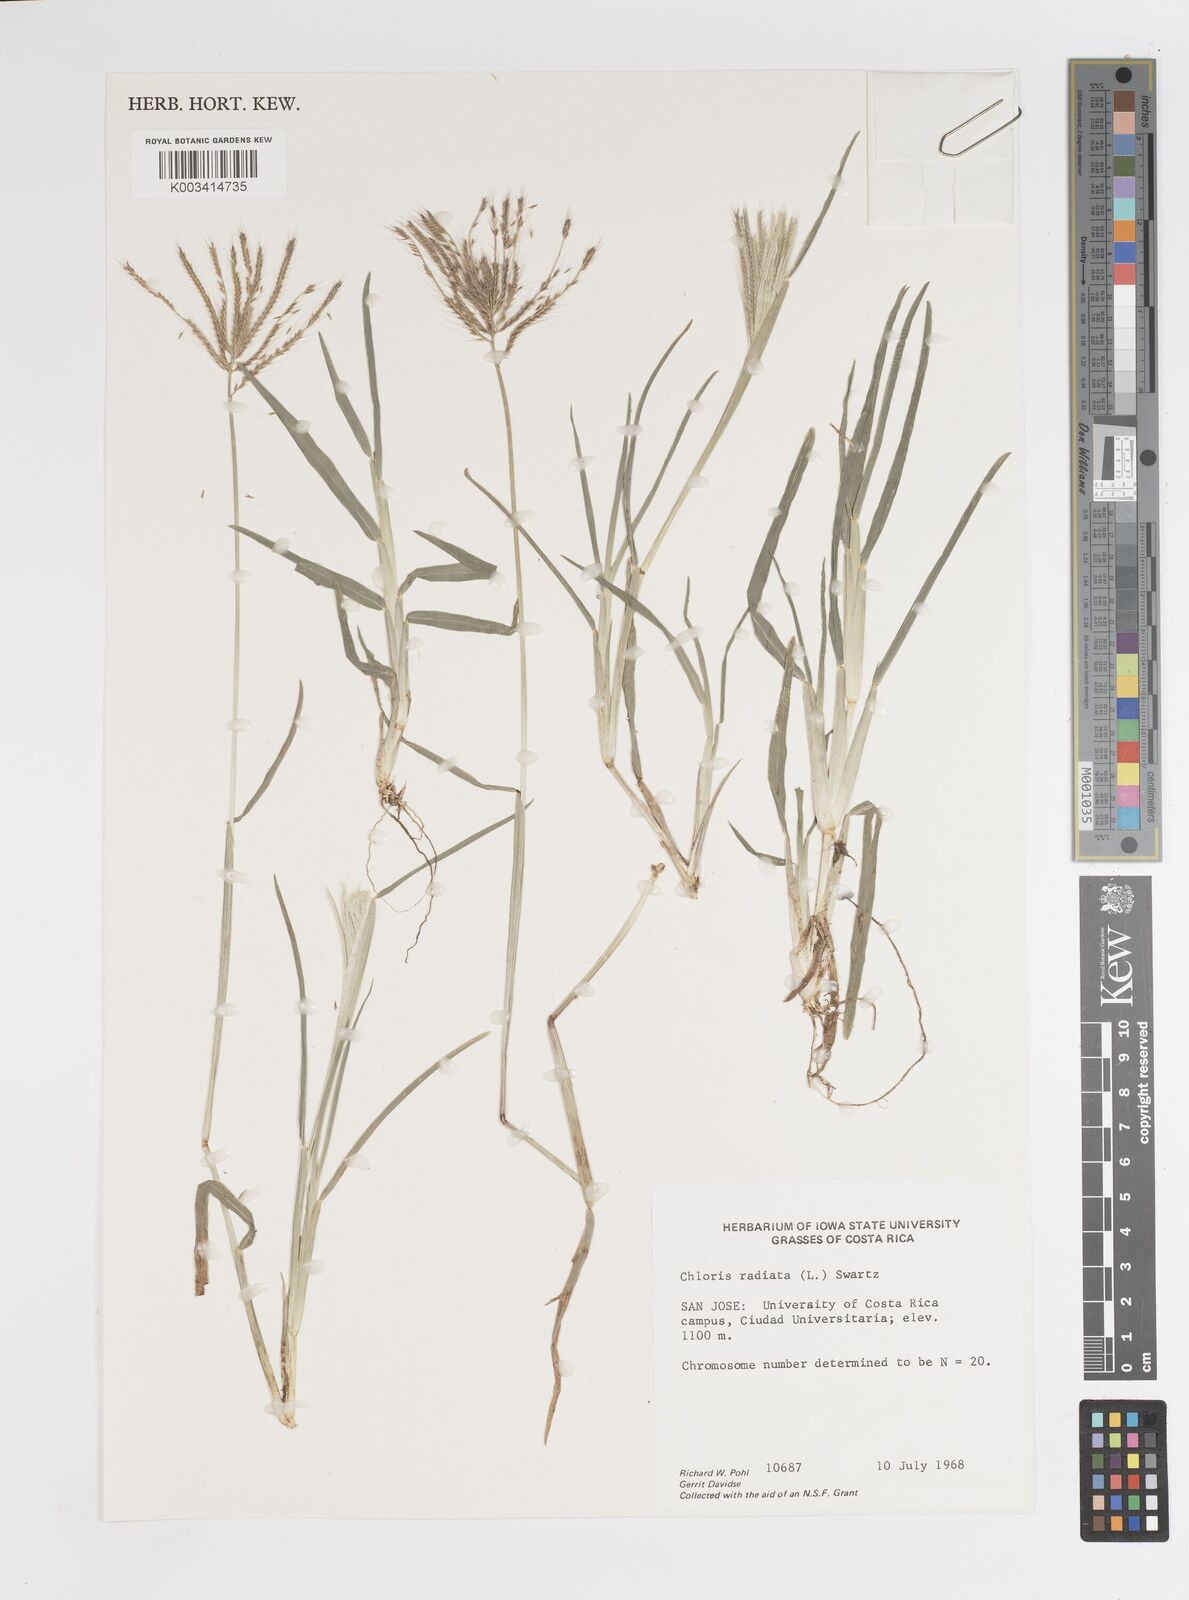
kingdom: Plantae
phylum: Tracheophyta
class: Liliopsida
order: Poales
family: Poaceae
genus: Chloris
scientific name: Chloris radiata
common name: Radiate fingergrass
